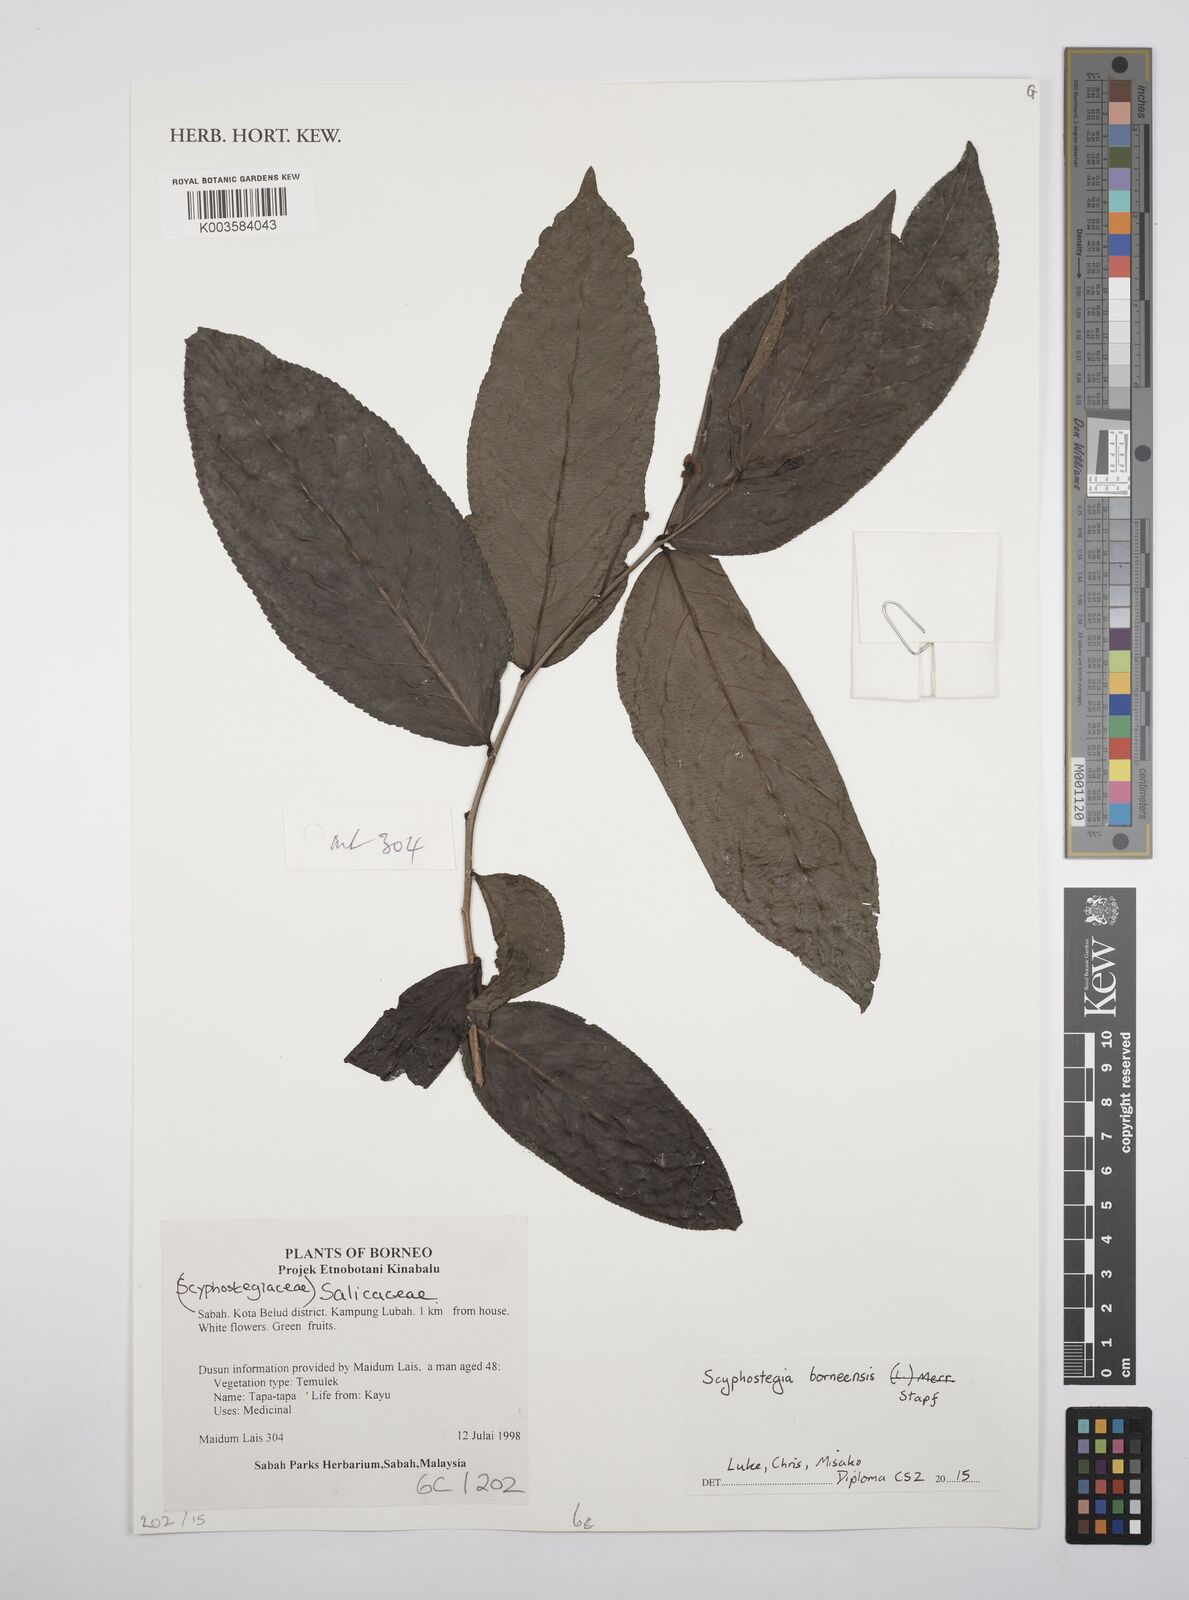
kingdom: Plantae
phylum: Tracheophyta
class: Magnoliopsida
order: Malpighiales
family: Salicaceae
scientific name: Salicaceae
